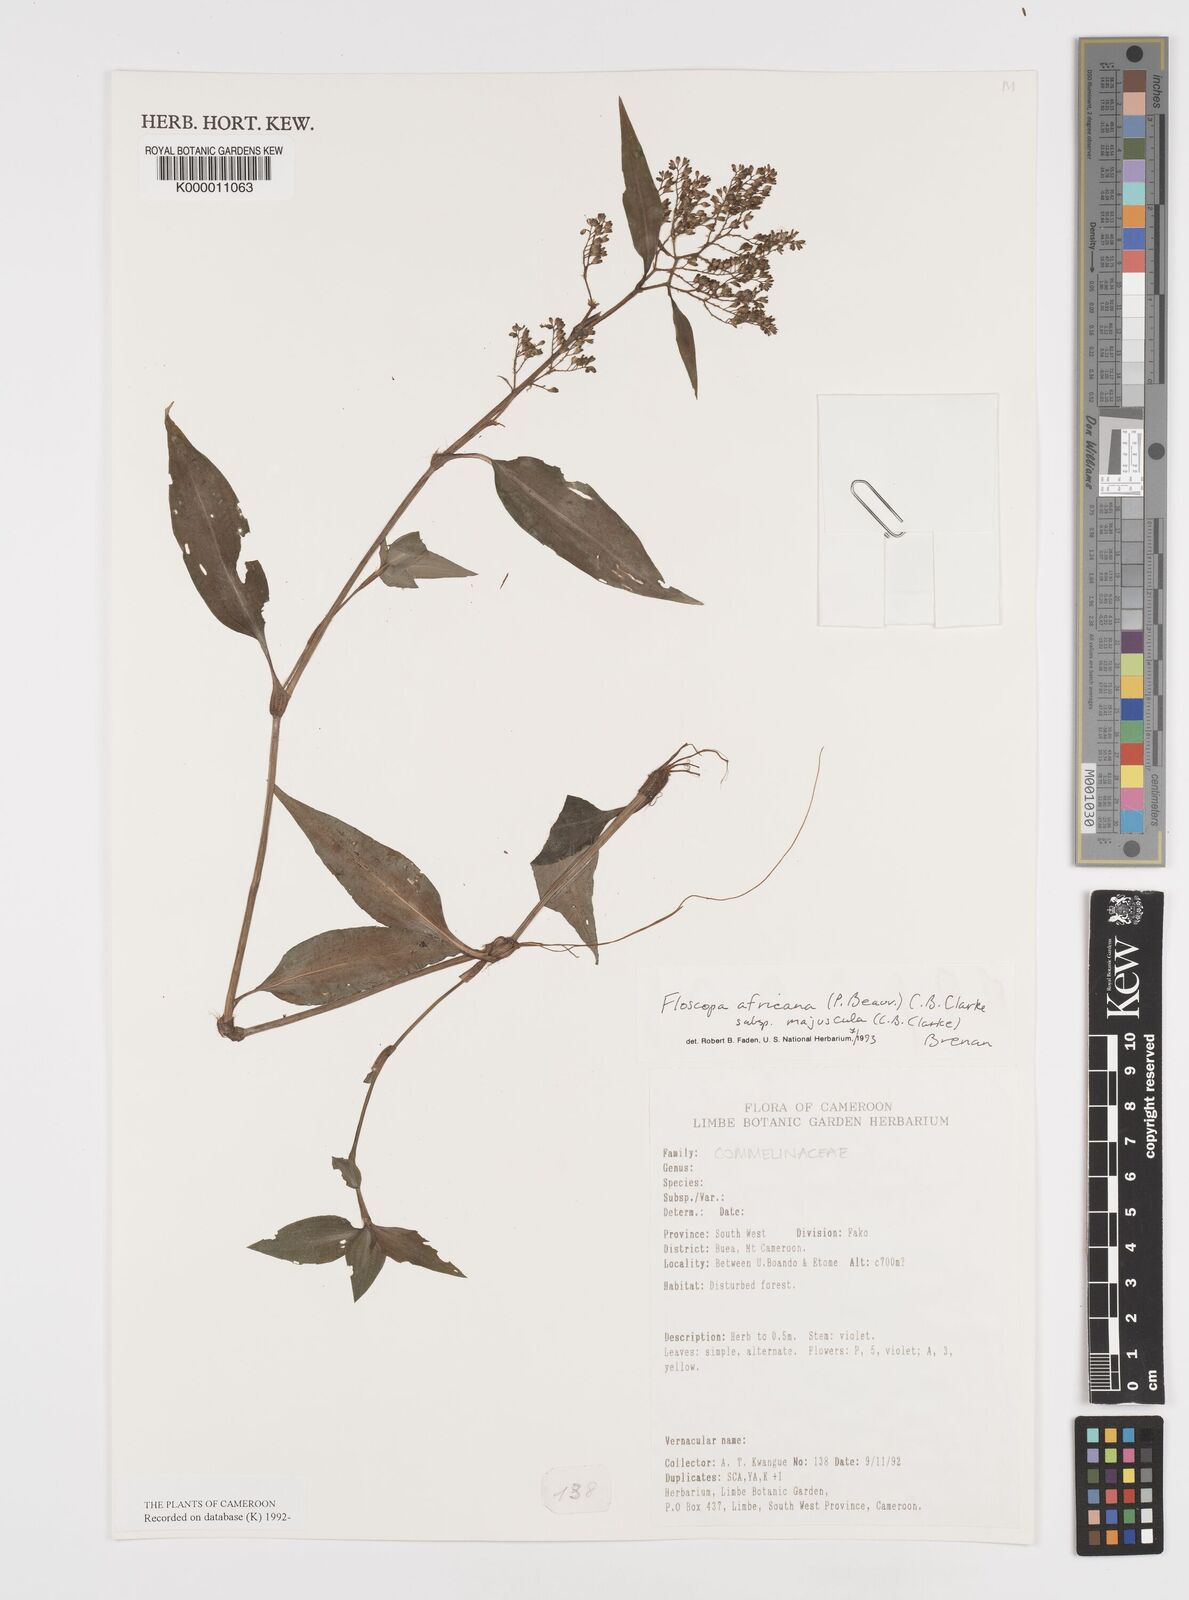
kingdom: Plantae
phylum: Tracheophyta
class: Liliopsida
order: Commelinales
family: Commelinaceae
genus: Floscopa
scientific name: Floscopa africana
